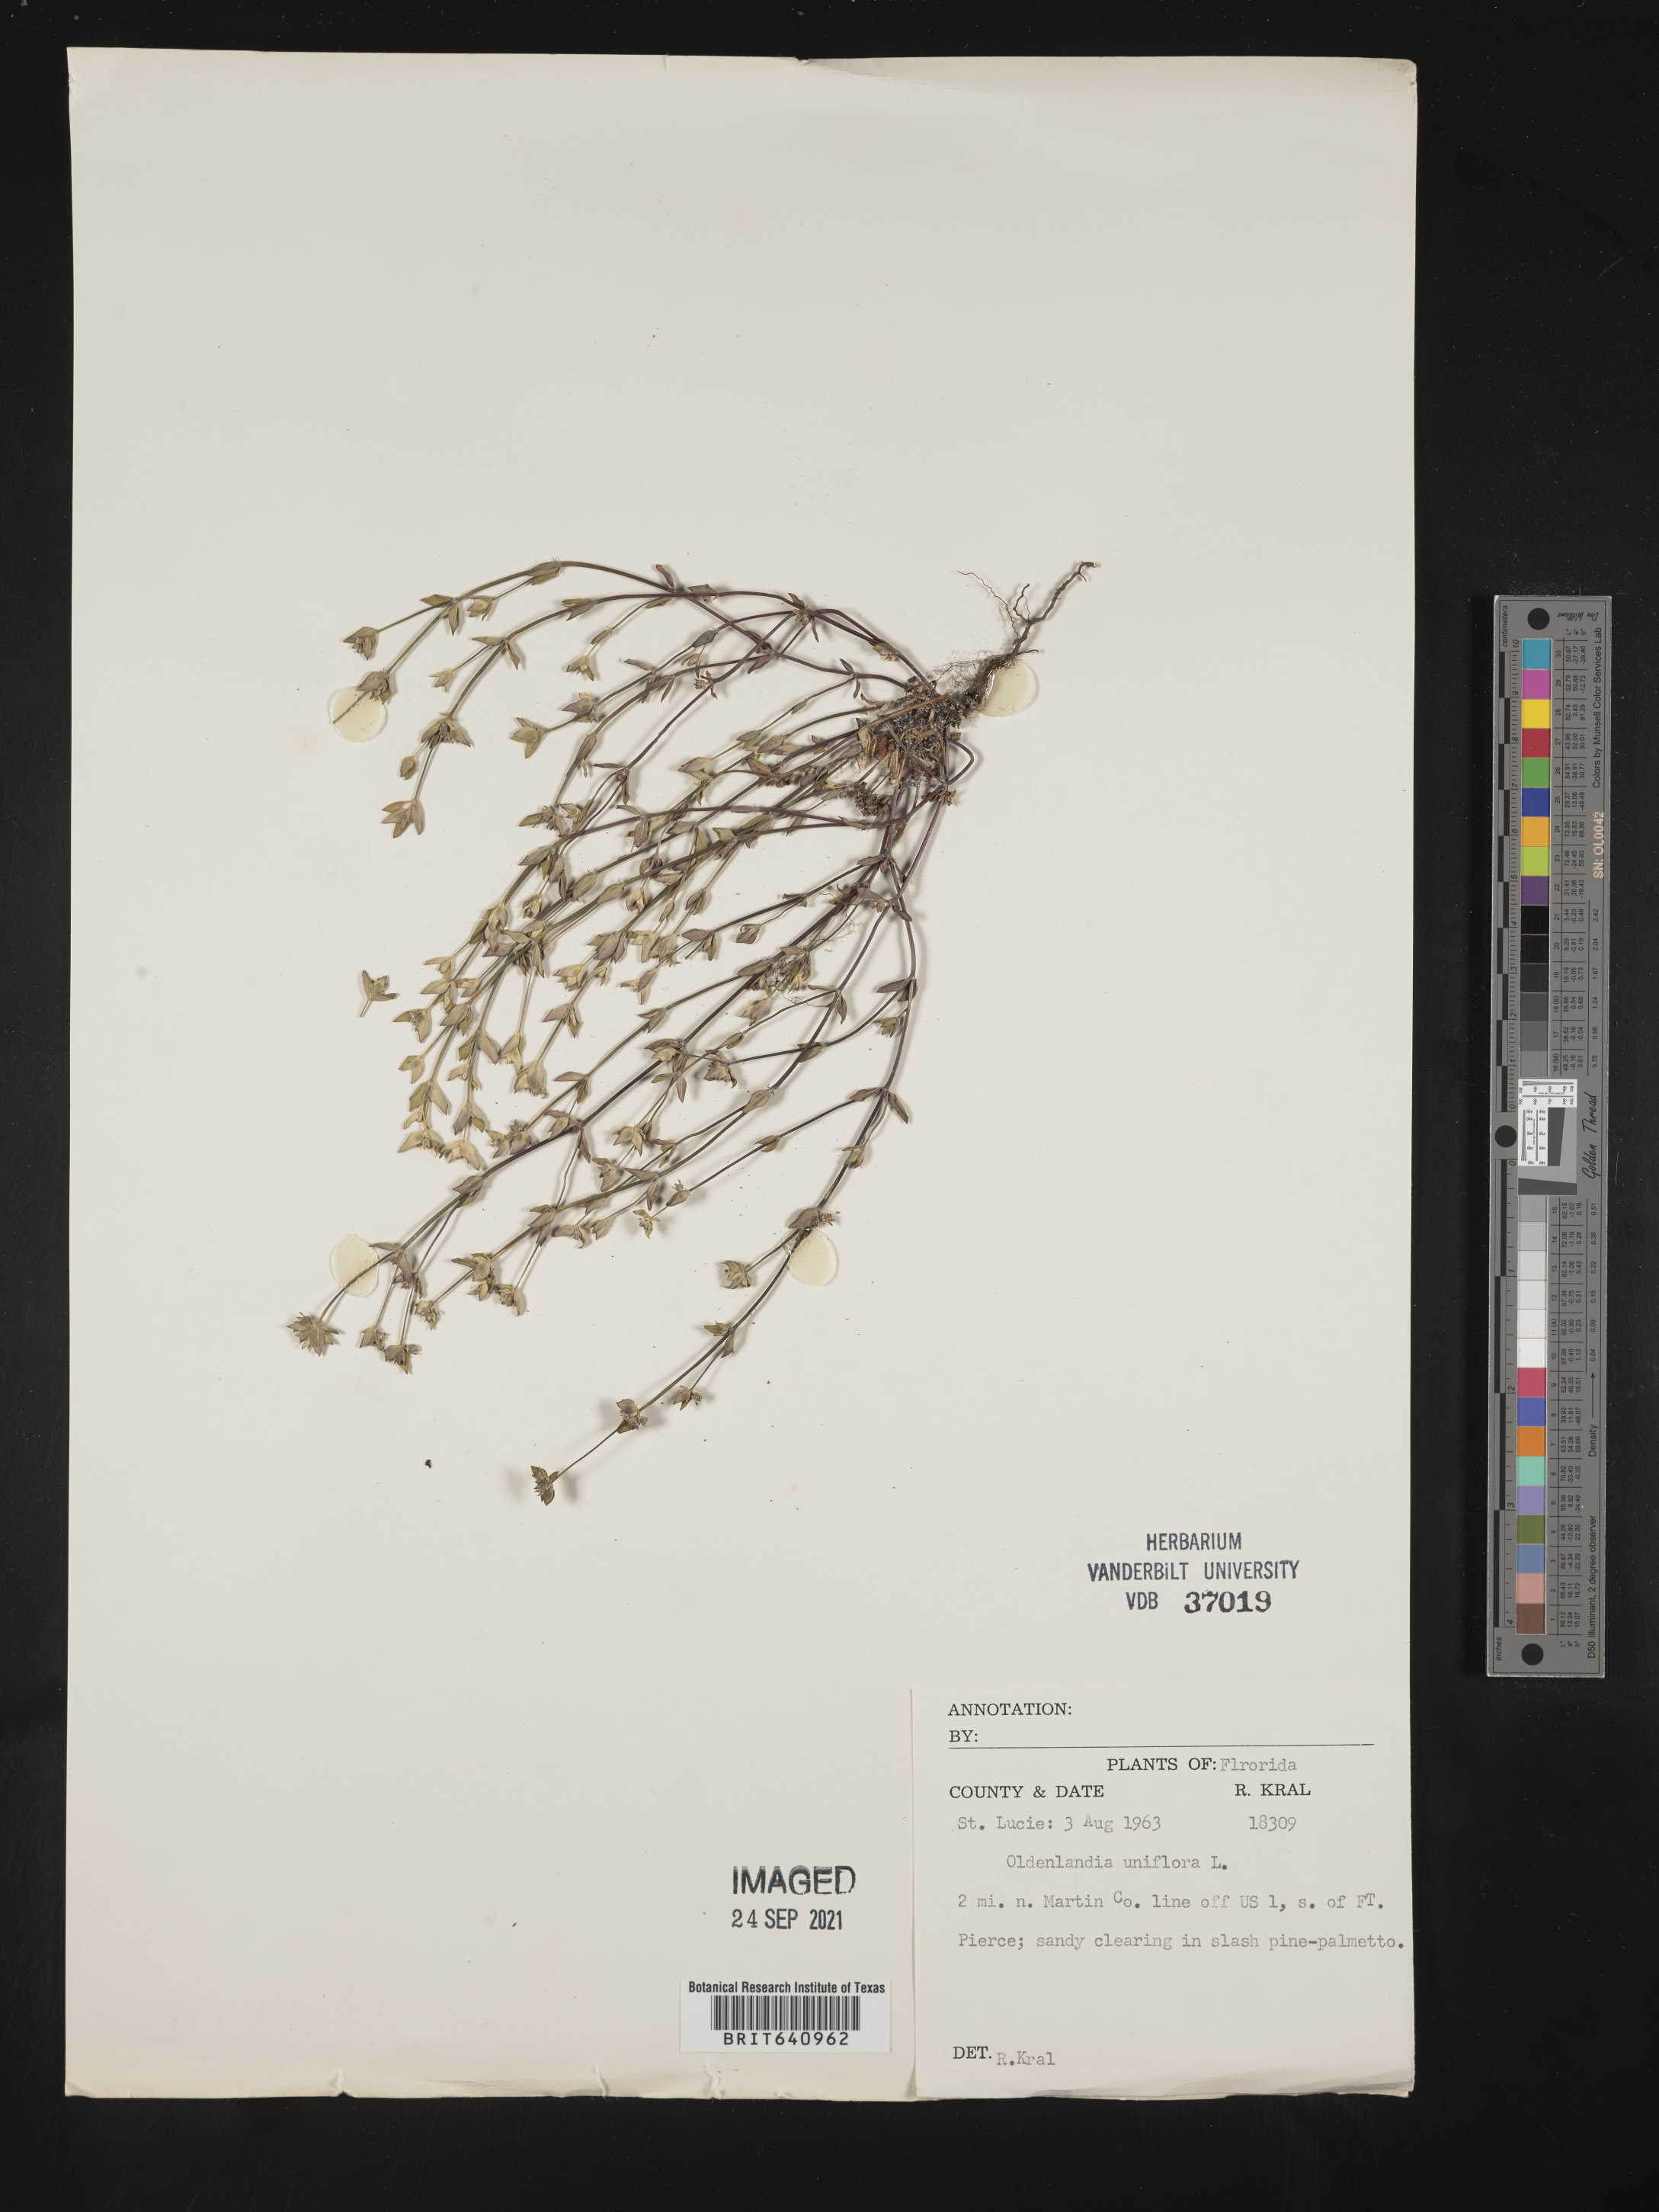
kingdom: Plantae
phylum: Tracheophyta
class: Magnoliopsida
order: Gentianales
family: Rubiaceae
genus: Edrastima
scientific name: Edrastima uniflora
